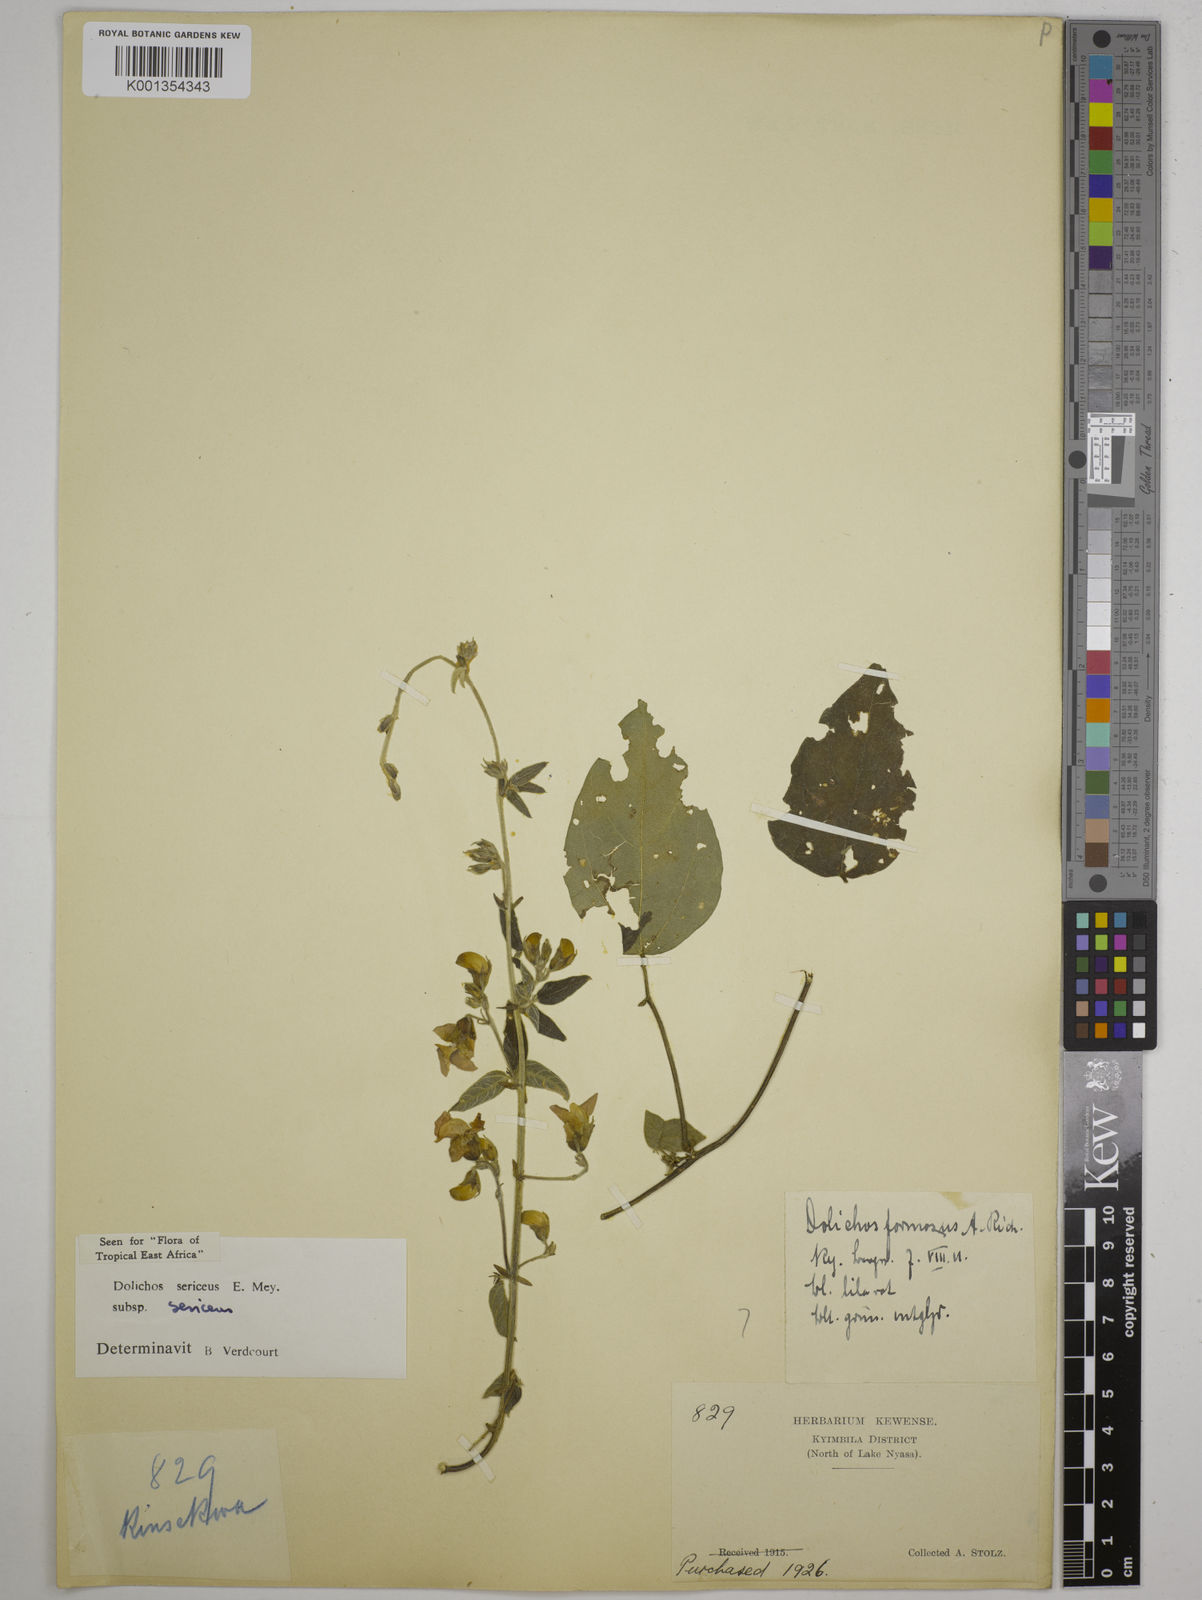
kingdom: Plantae
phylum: Tracheophyta
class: Magnoliopsida
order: Fabales
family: Fabaceae
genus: Dolichos
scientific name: Dolichos sericeus
